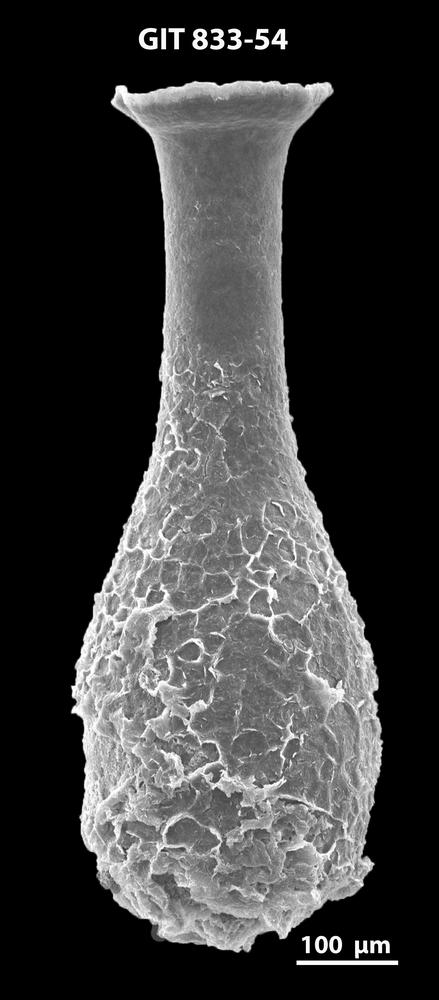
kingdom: Animalia
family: Lagenochitinidae
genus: Lagenochitina
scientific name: Lagenochitina megaesthonica
